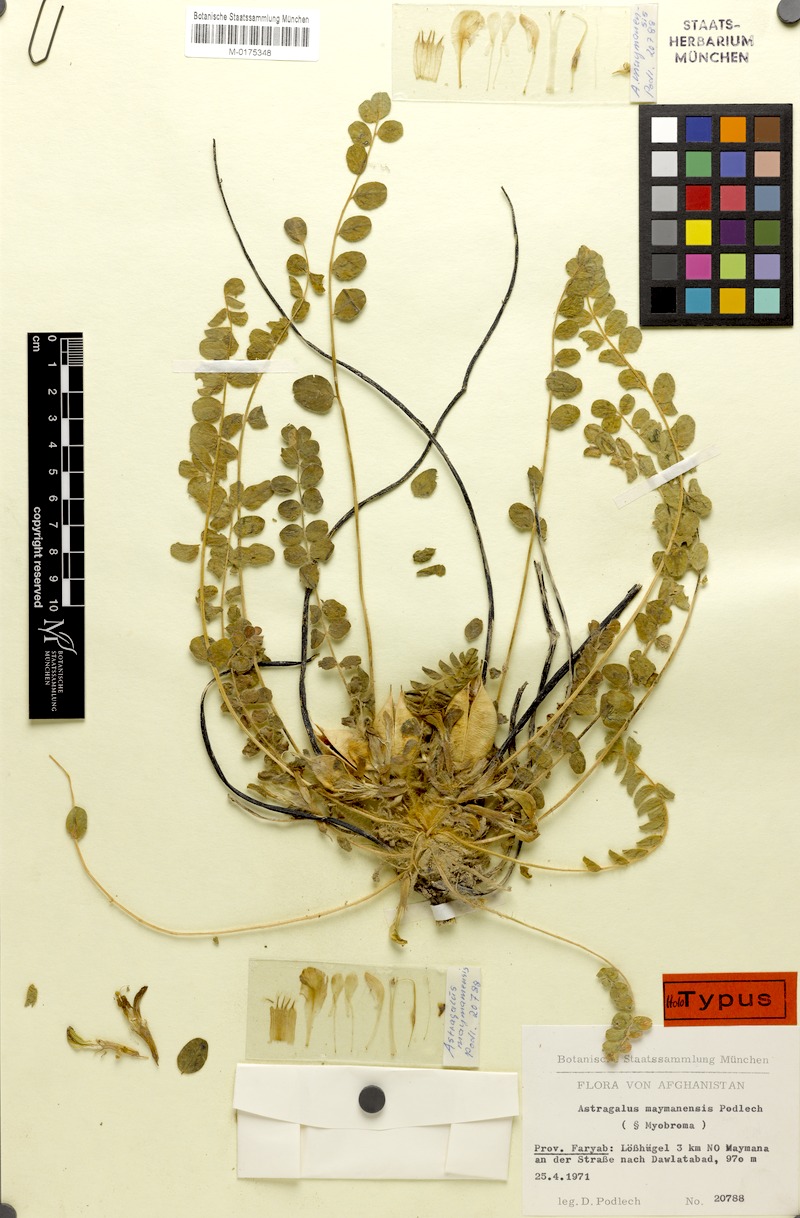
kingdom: Plantae
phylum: Tracheophyta
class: Magnoliopsida
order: Fabales
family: Fabaceae
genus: Astragalus
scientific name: Astragalus nephtonensis
